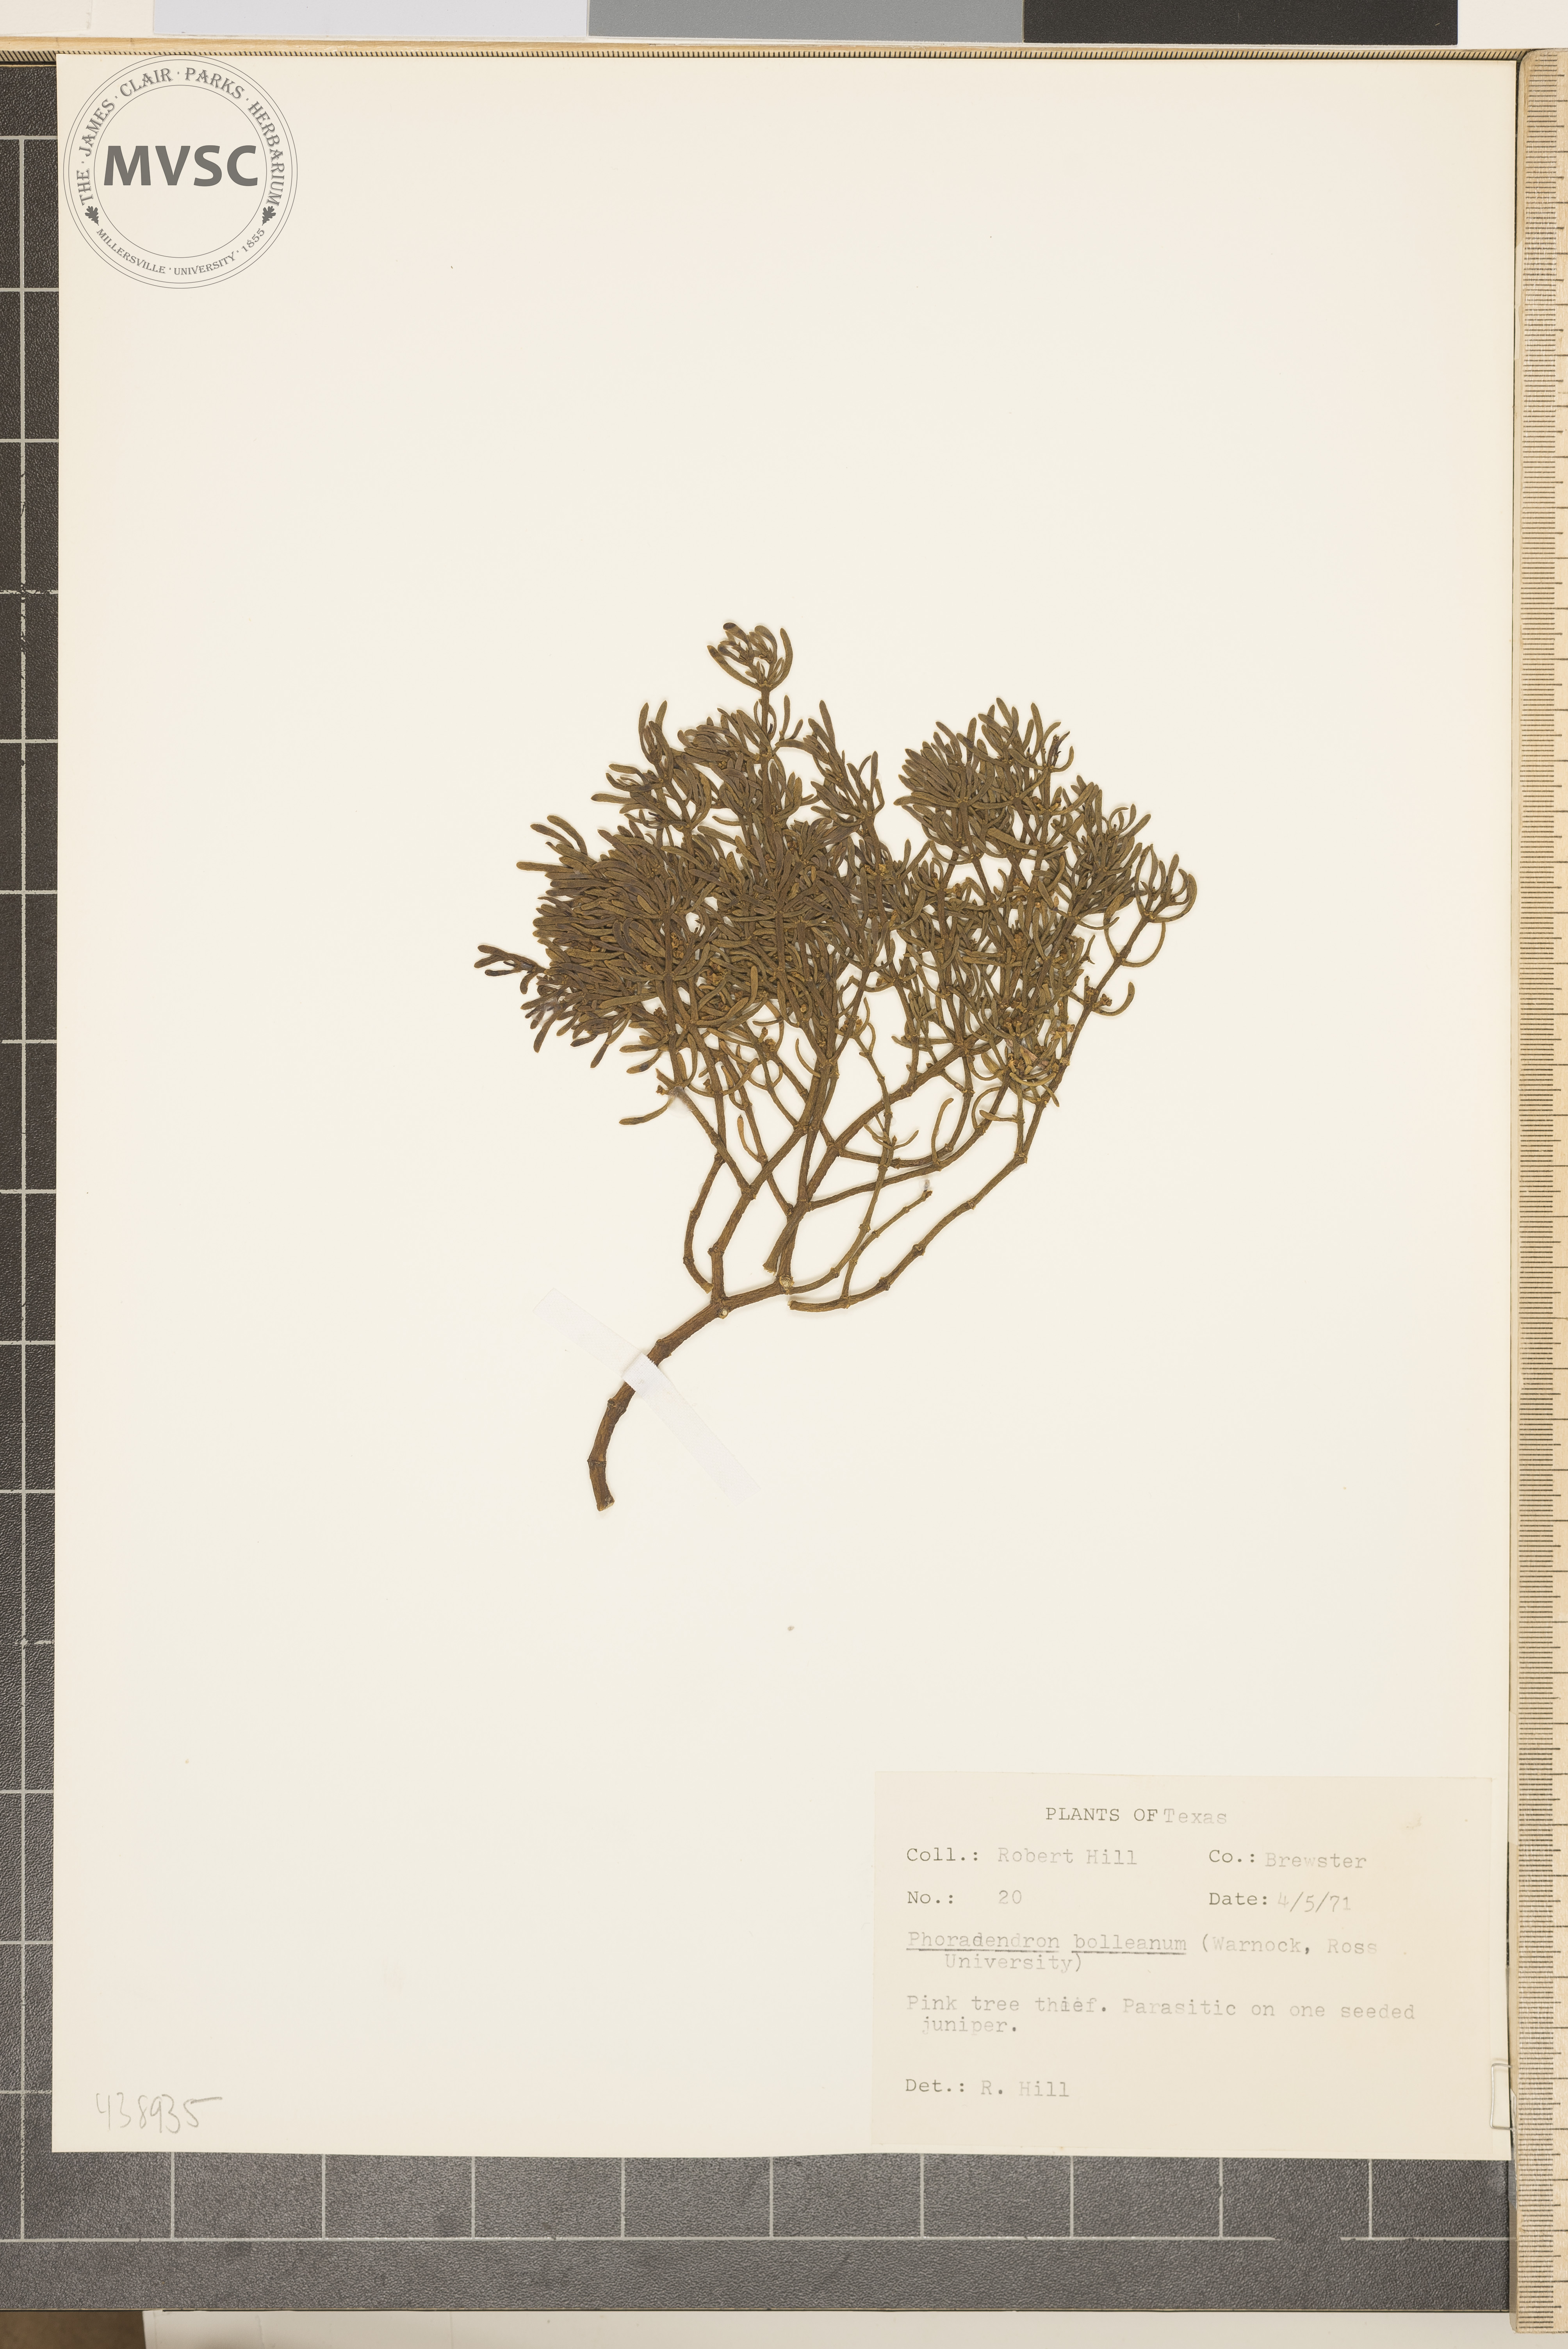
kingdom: Plantae
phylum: Tracheophyta
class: Magnoliopsida
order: Santalales
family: Viscaceae
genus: Phoradendron
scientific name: Phoradendron bolleanum
